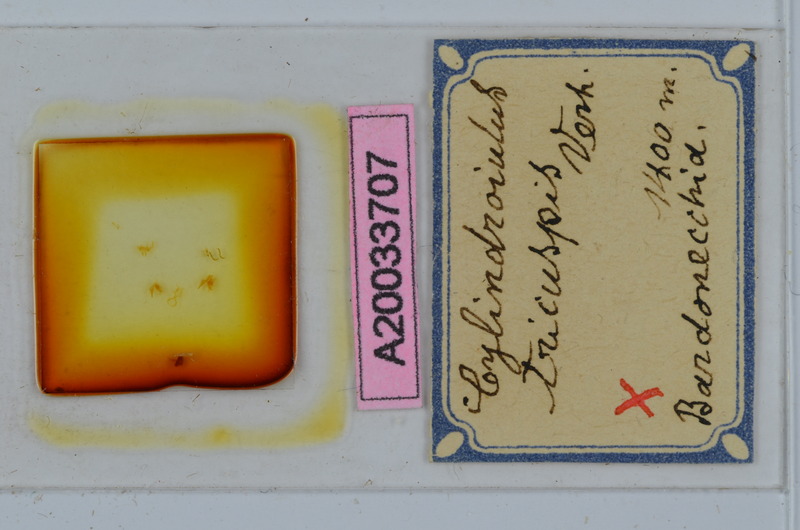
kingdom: Animalia
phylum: Arthropoda
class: Diplopoda
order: Julida
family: Julidae
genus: Cylindroiulus
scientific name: Cylindroiulus tricuspis
